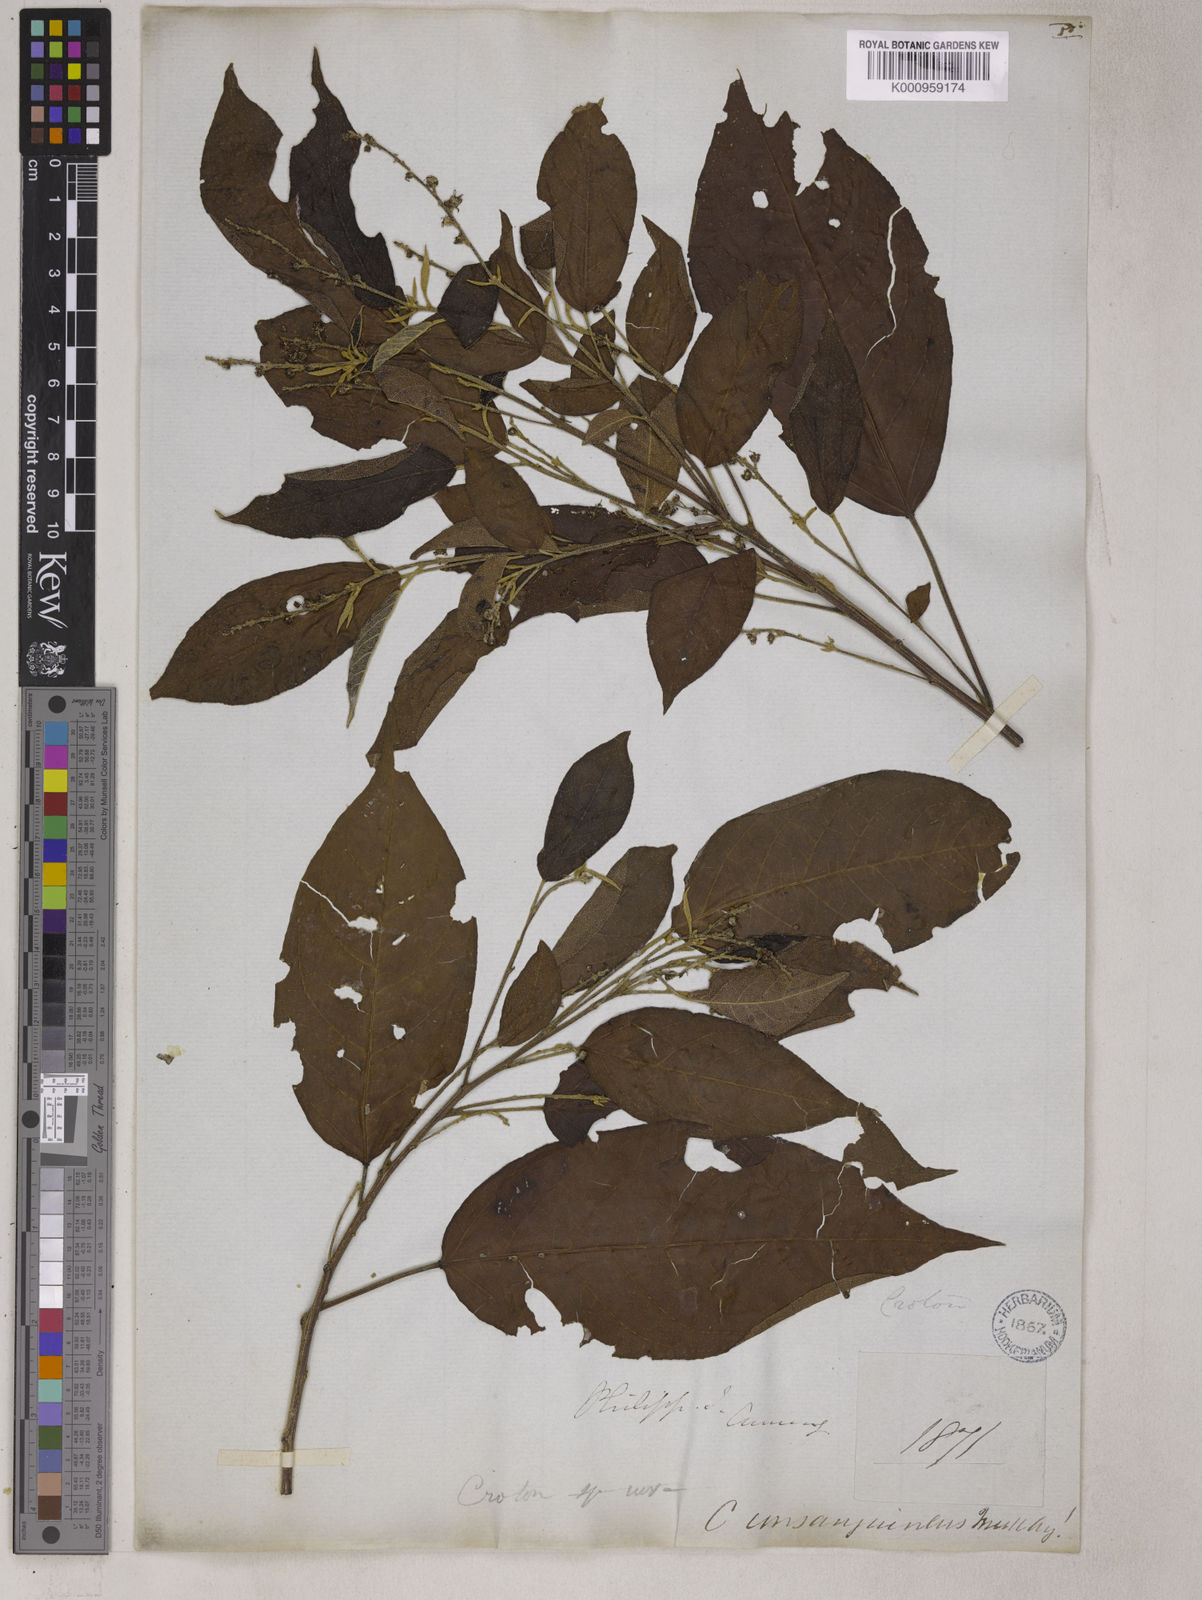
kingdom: Plantae
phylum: Tracheophyta
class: Magnoliopsida
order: Malpighiales
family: Euphorbiaceae
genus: Croton
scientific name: Croton
